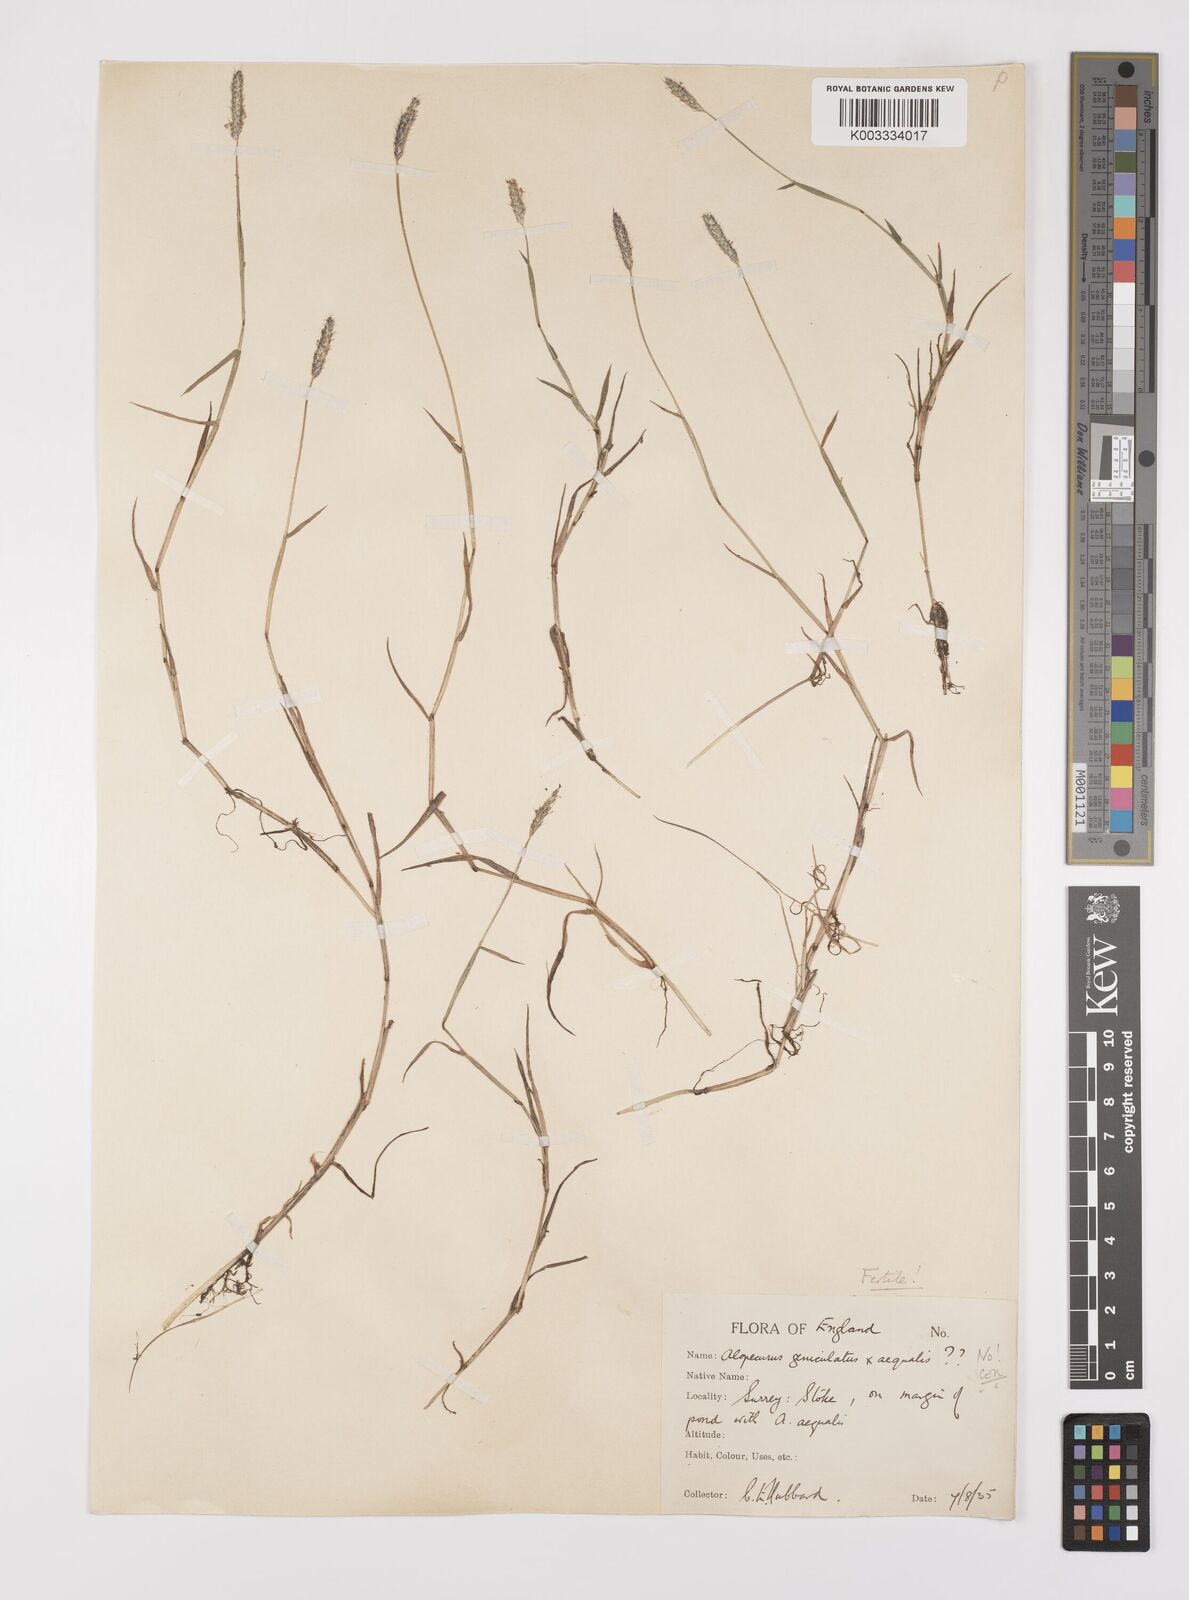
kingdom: Plantae
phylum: Tracheophyta
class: Liliopsida
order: Poales
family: Poaceae
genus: Alopecurus
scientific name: Alopecurus geniculatus
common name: Water foxtail
